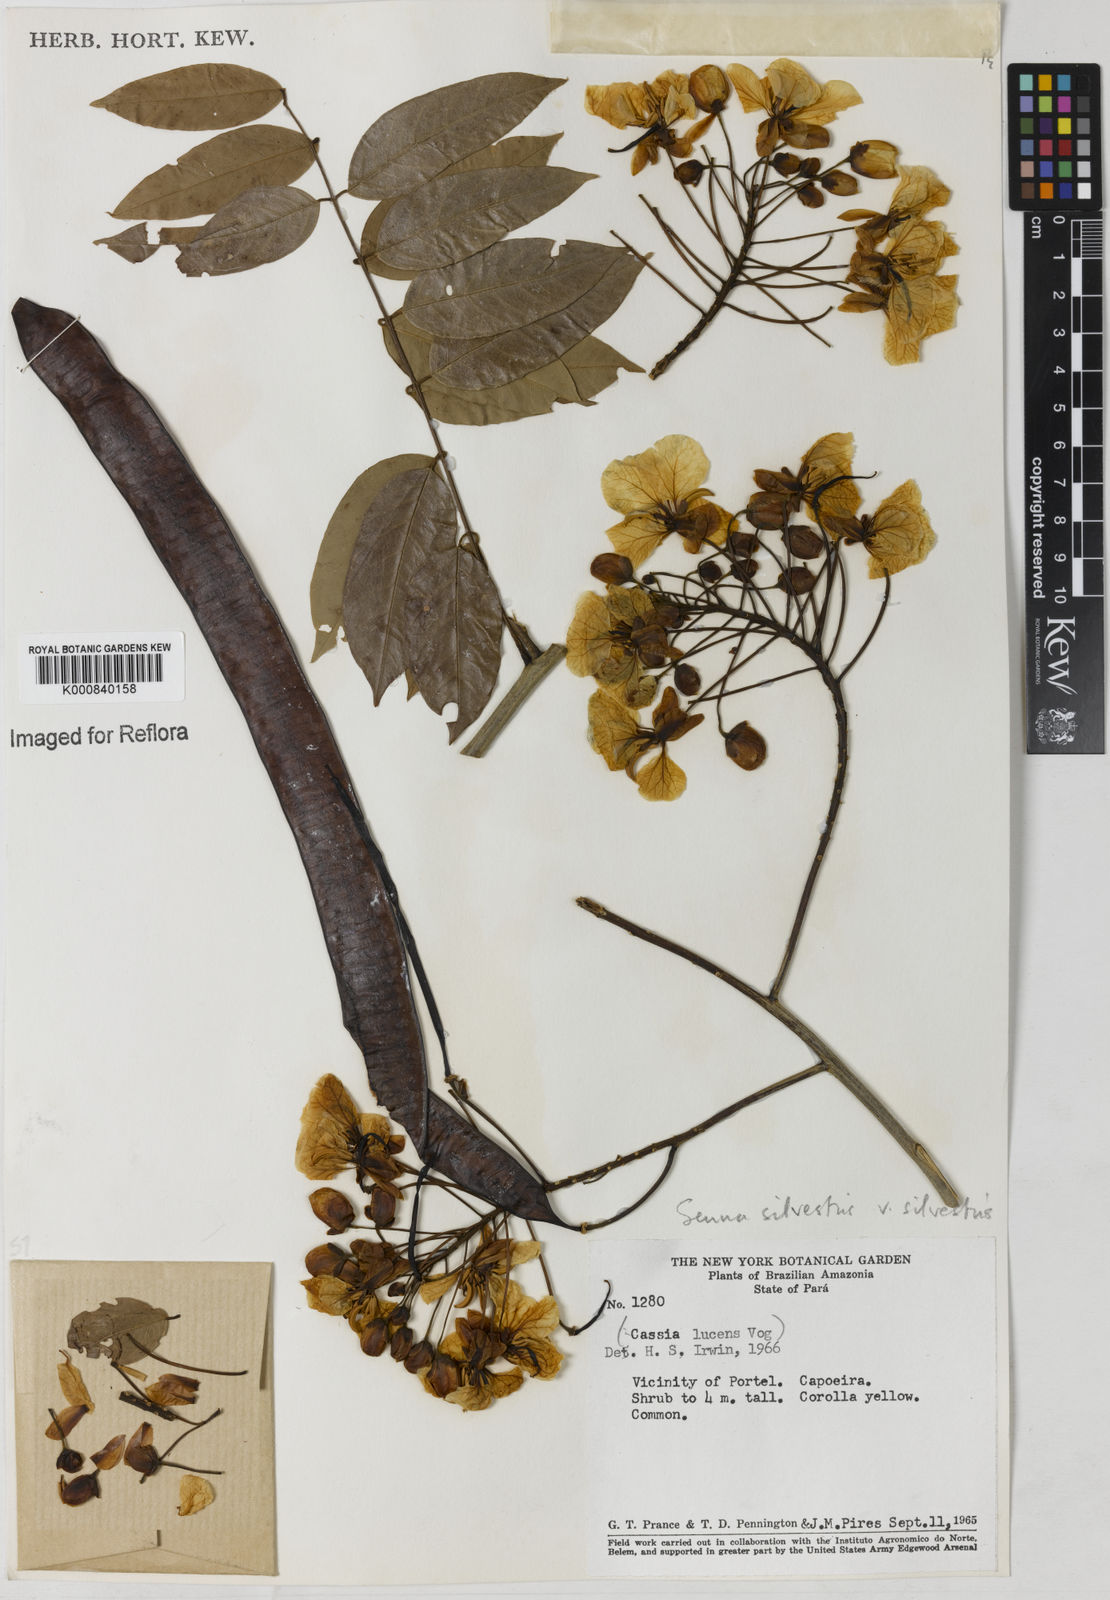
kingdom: Plantae
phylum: Tracheophyta
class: Magnoliopsida
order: Fabales
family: Fabaceae
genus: Senna
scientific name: Senna silvestris
